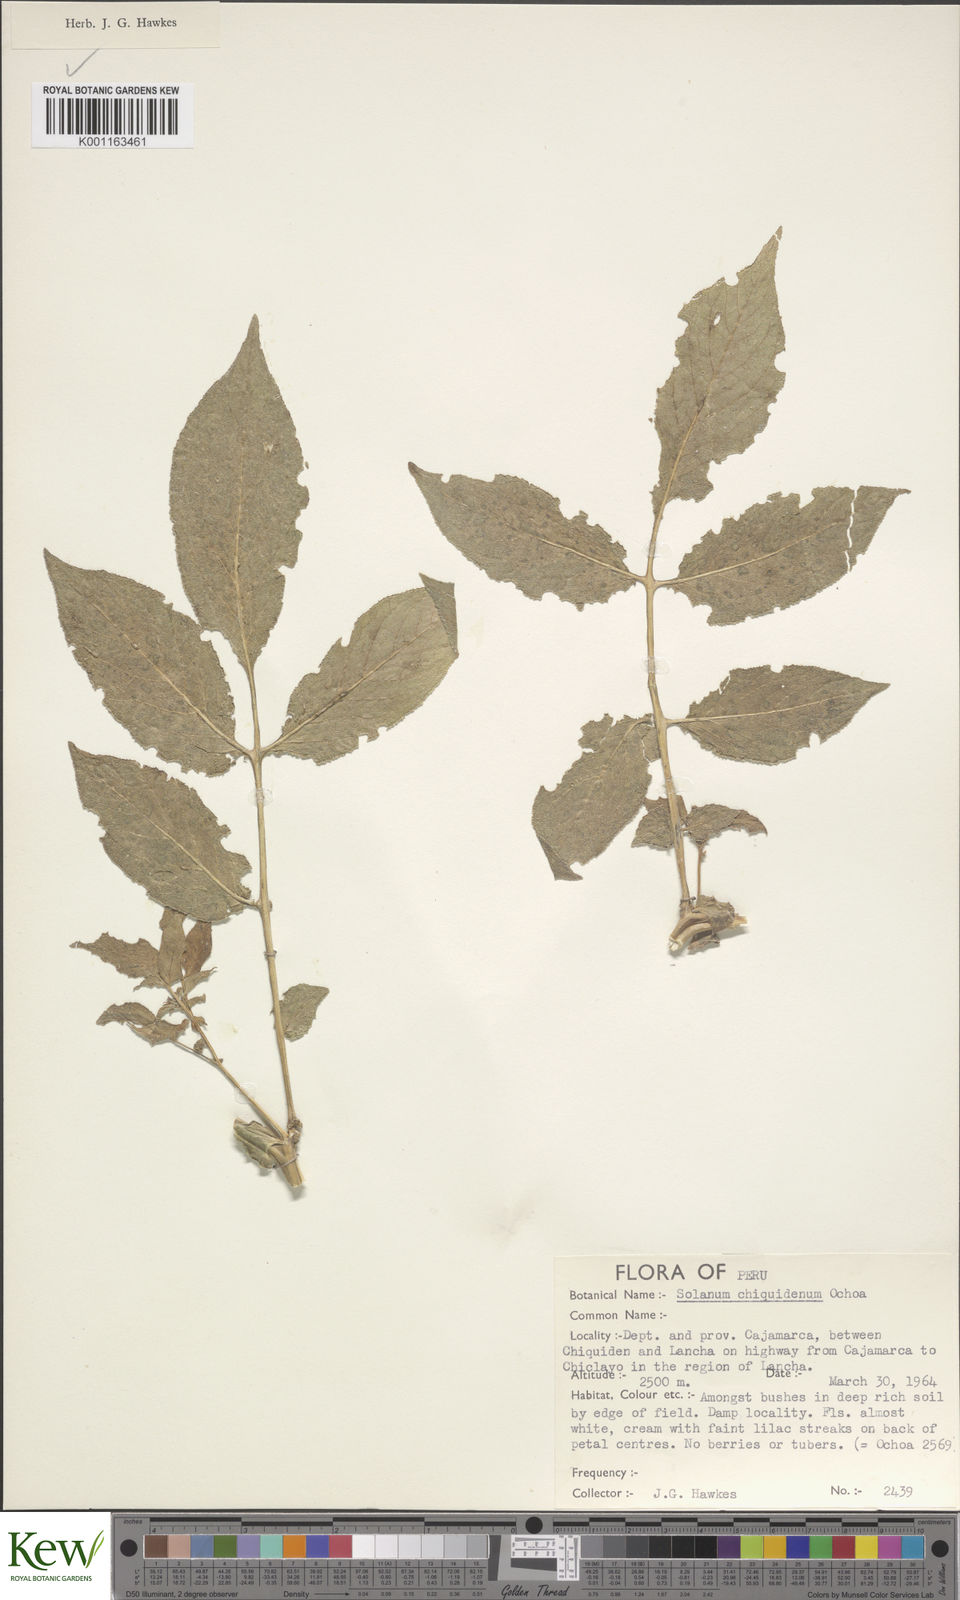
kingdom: Plantae
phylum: Tracheophyta
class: Magnoliopsida
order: Solanales
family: Solanaceae
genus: Solanum
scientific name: Solanum chiquidenum
